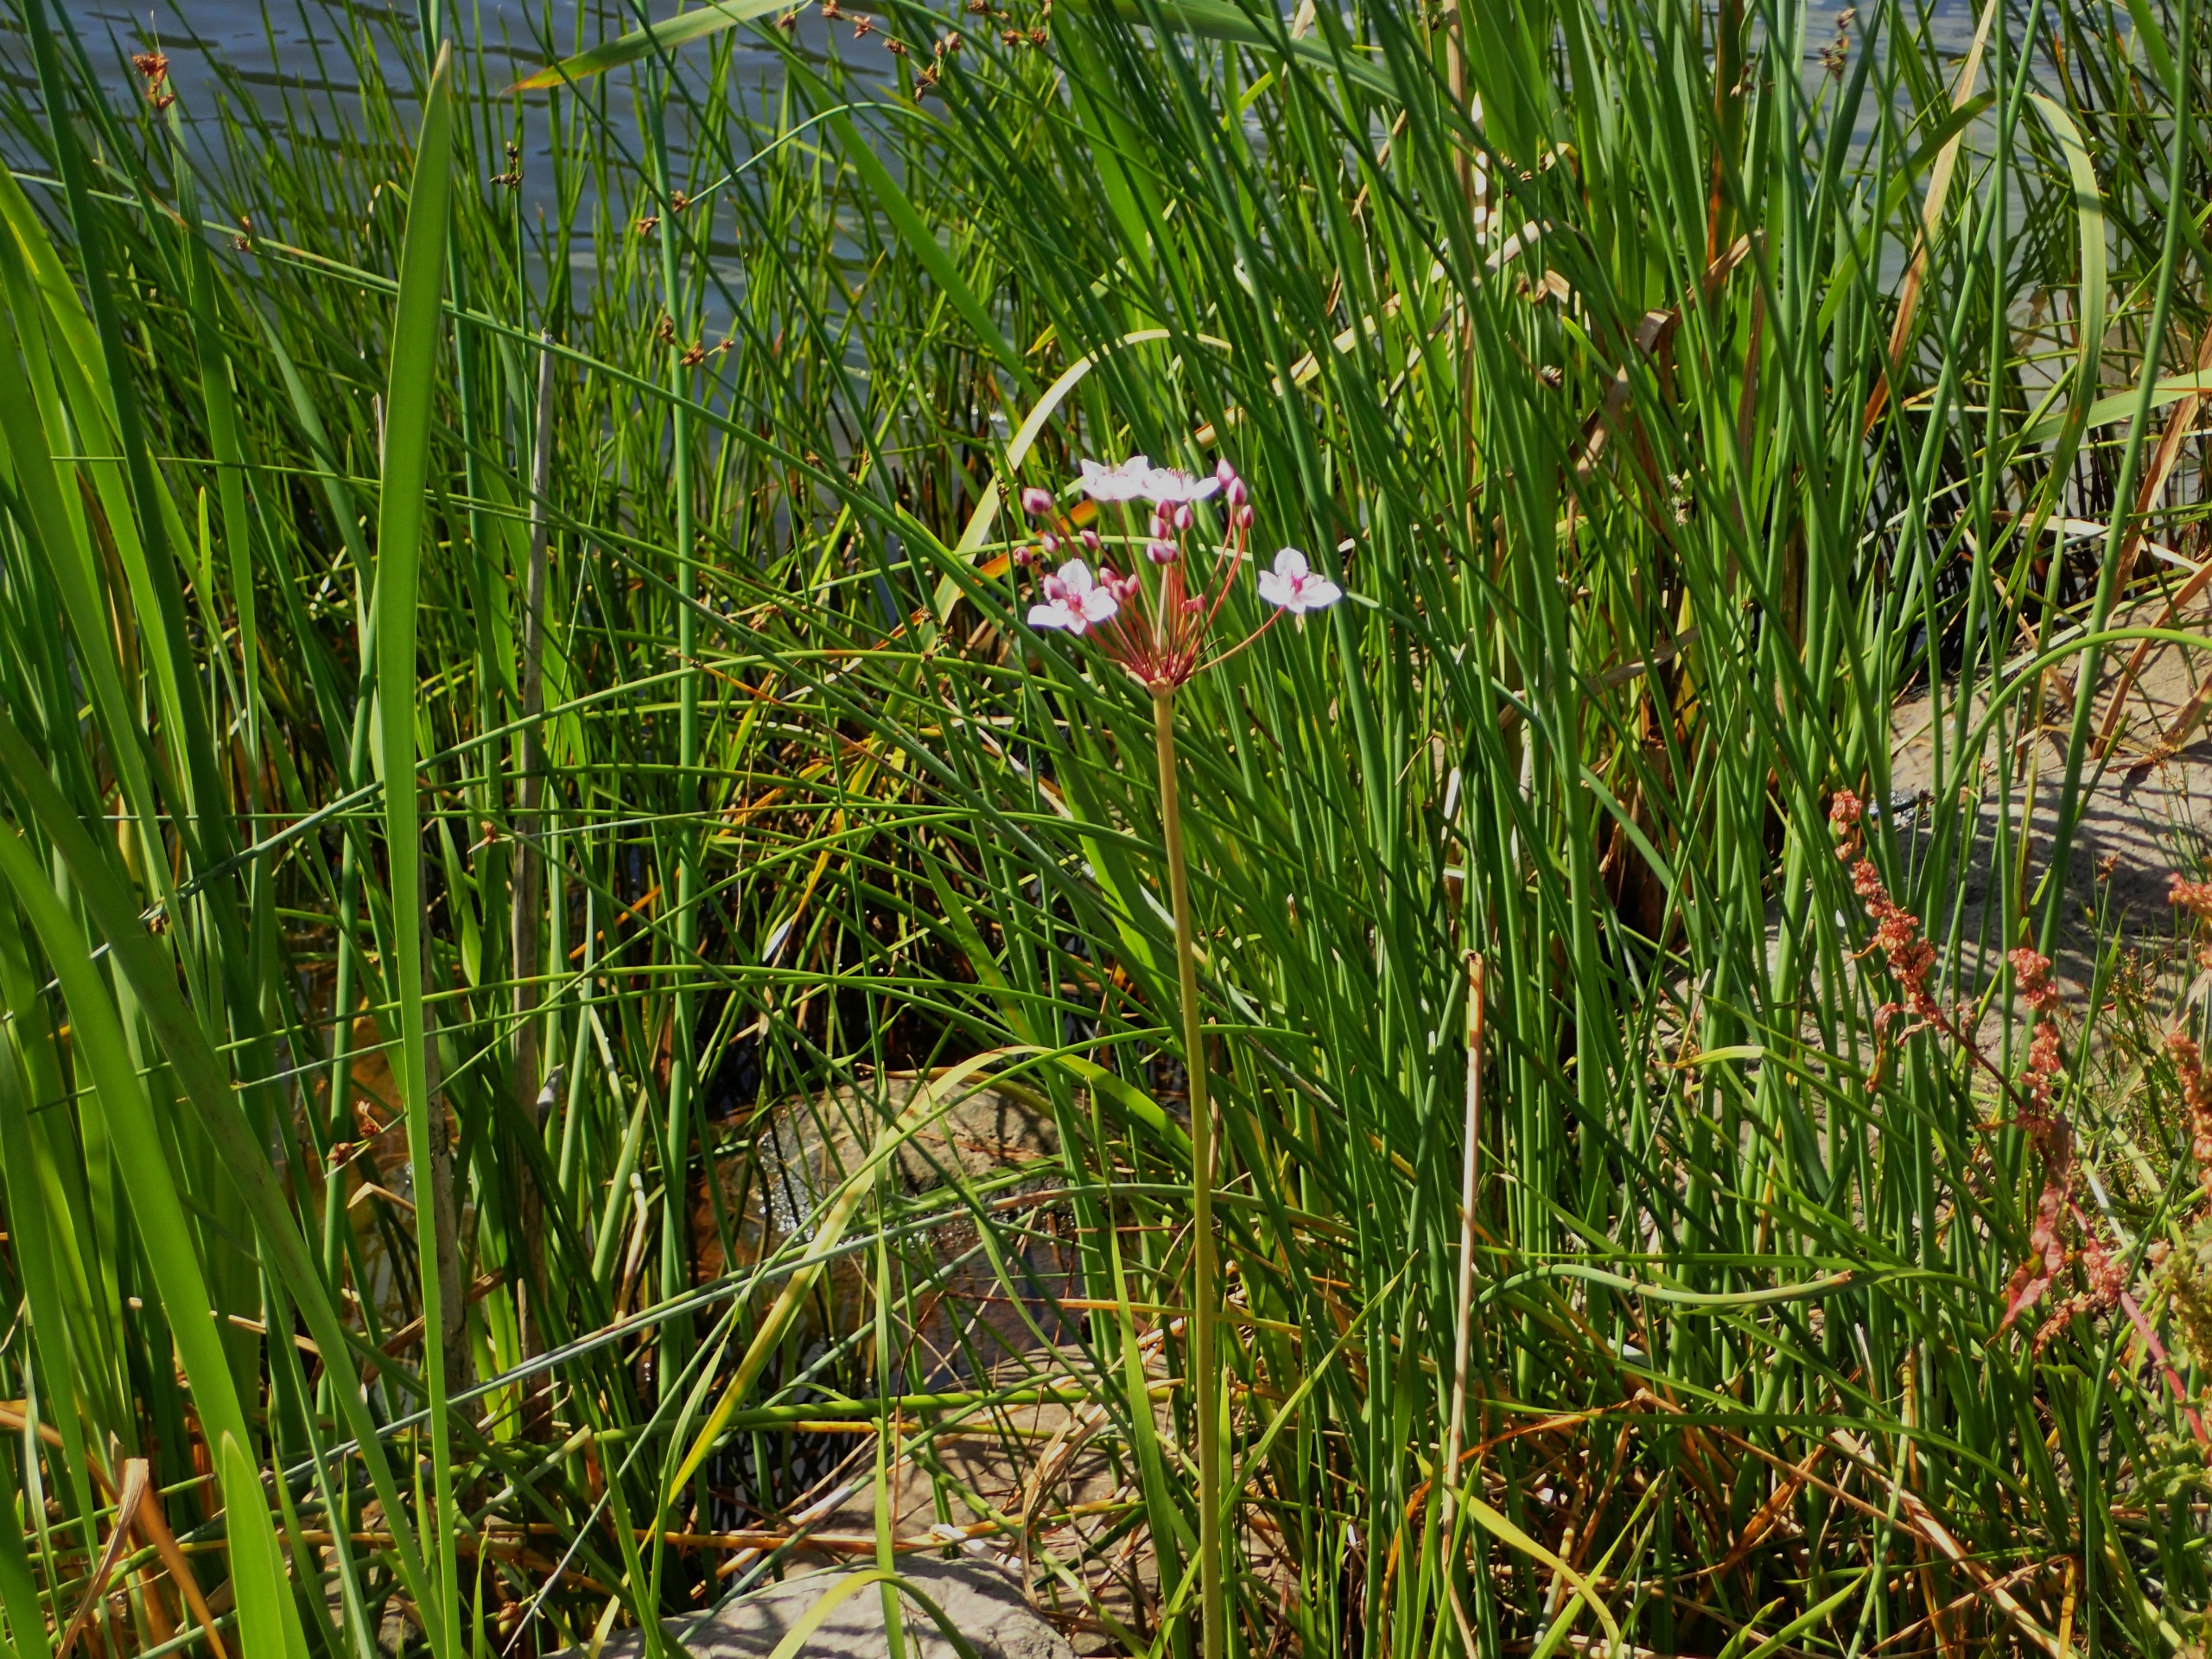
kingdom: Plantae
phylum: Tracheophyta
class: Liliopsida
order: Alismatales
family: Butomaceae
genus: Butomus
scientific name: Butomus umbellatus
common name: Brudelys
